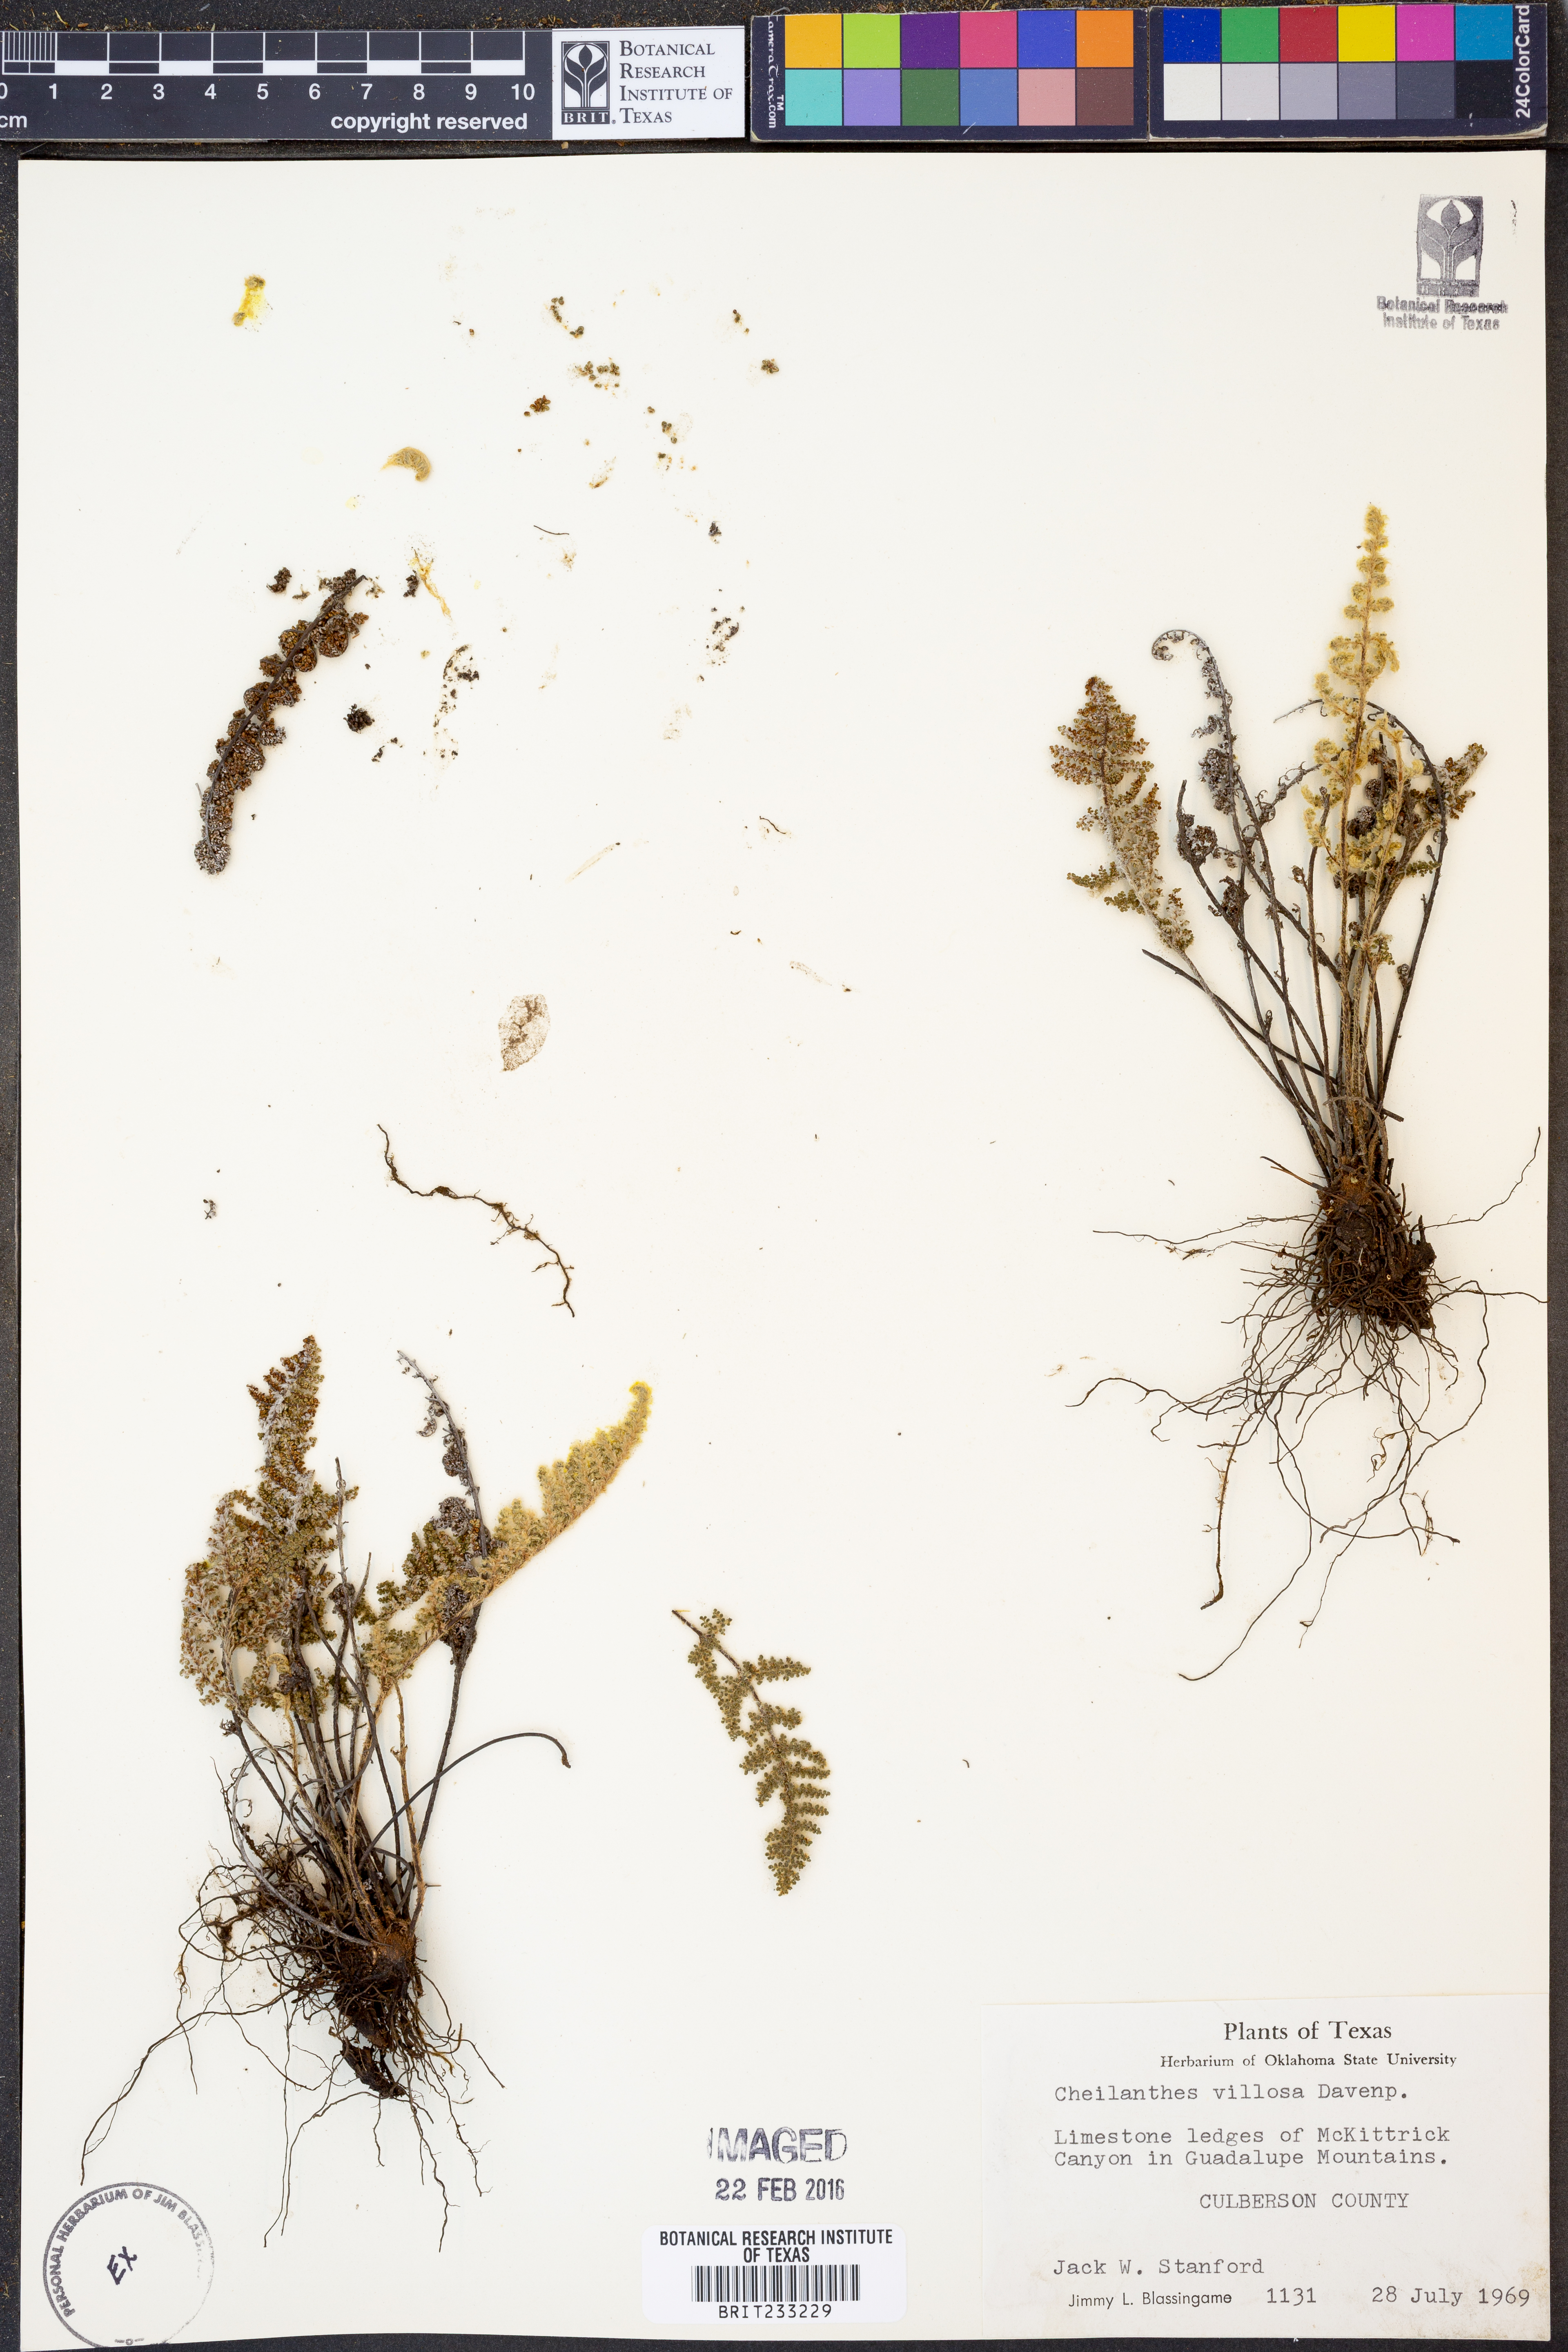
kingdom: Plantae
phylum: Tracheophyta
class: Polypodiopsida
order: Polypodiales
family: Pteridaceae
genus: Myriopteris
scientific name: Myriopteris windhamii
